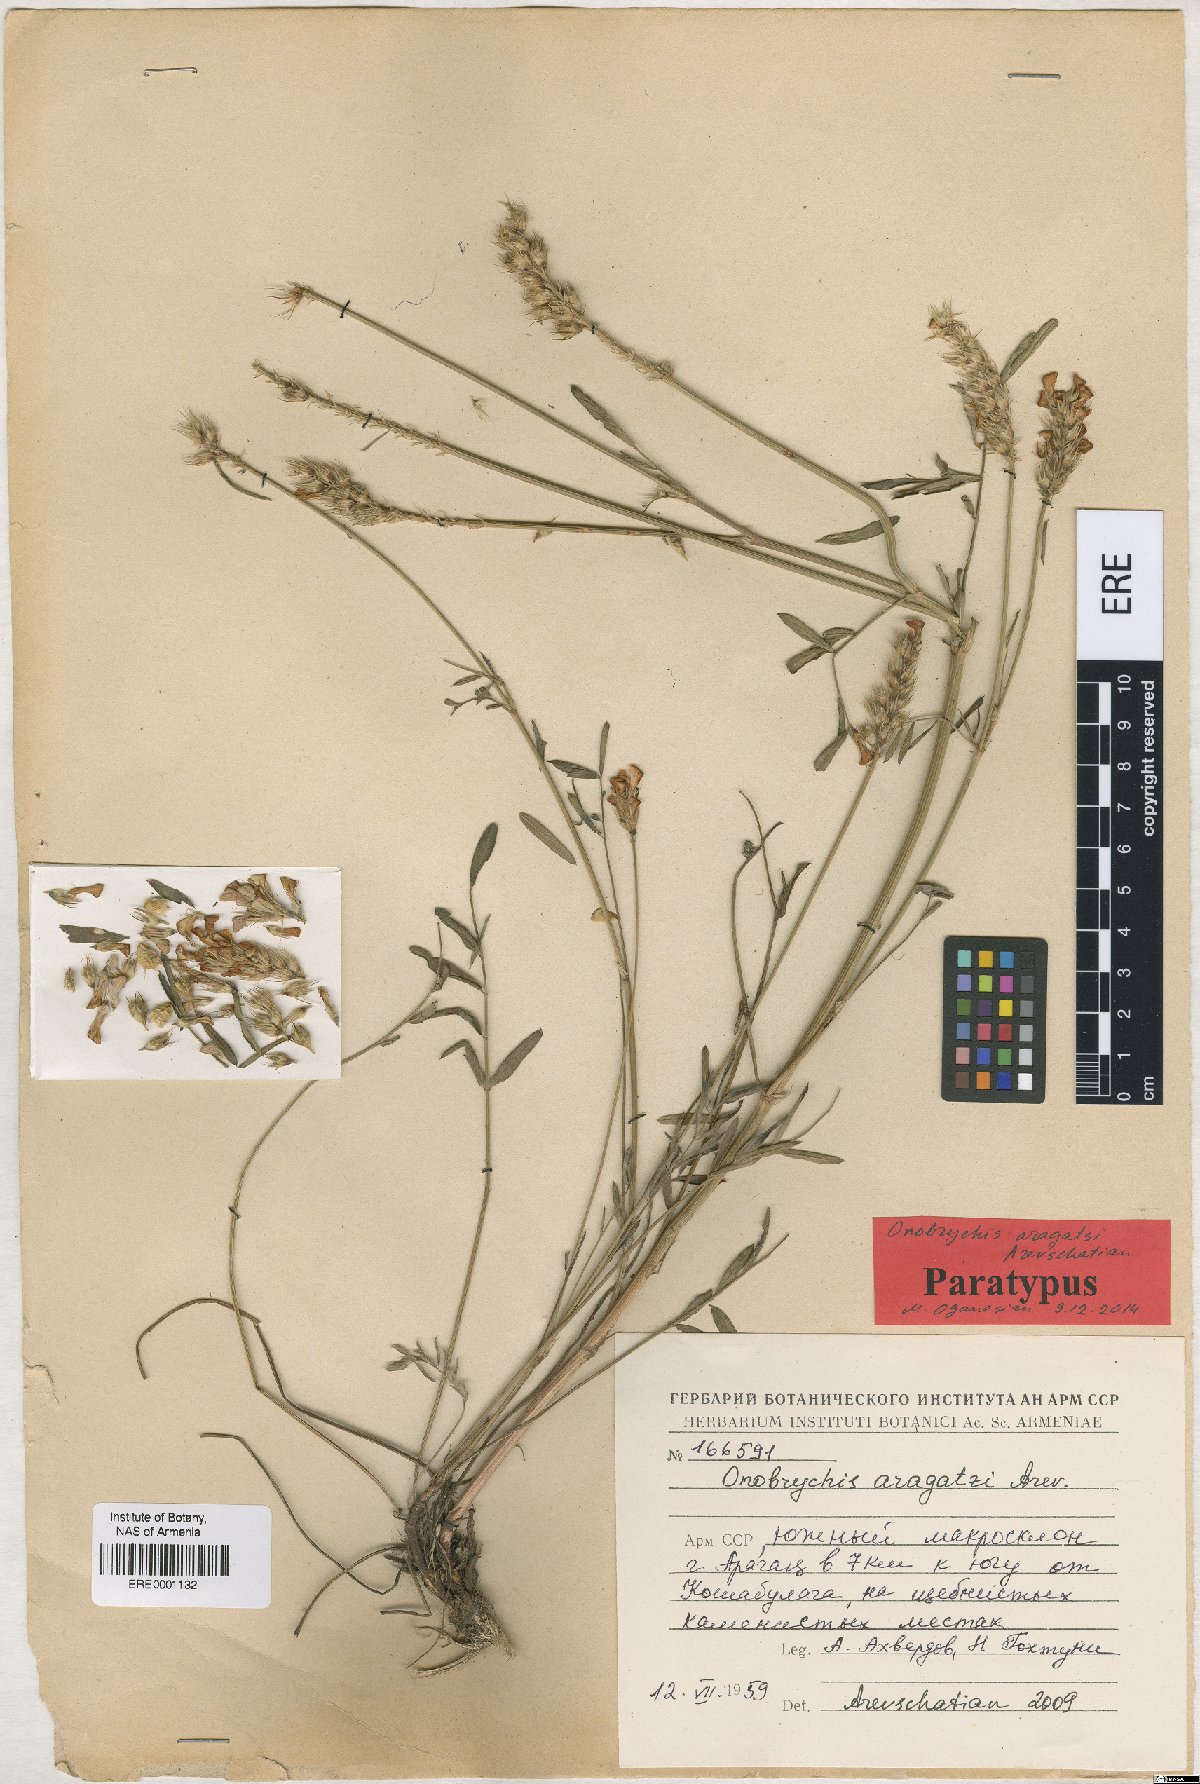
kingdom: Plantae
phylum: Tracheophyta
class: Magnoliopsida
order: Fabales
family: Fabaceae
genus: Onobrychis
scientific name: Onobrychis aragatzi
